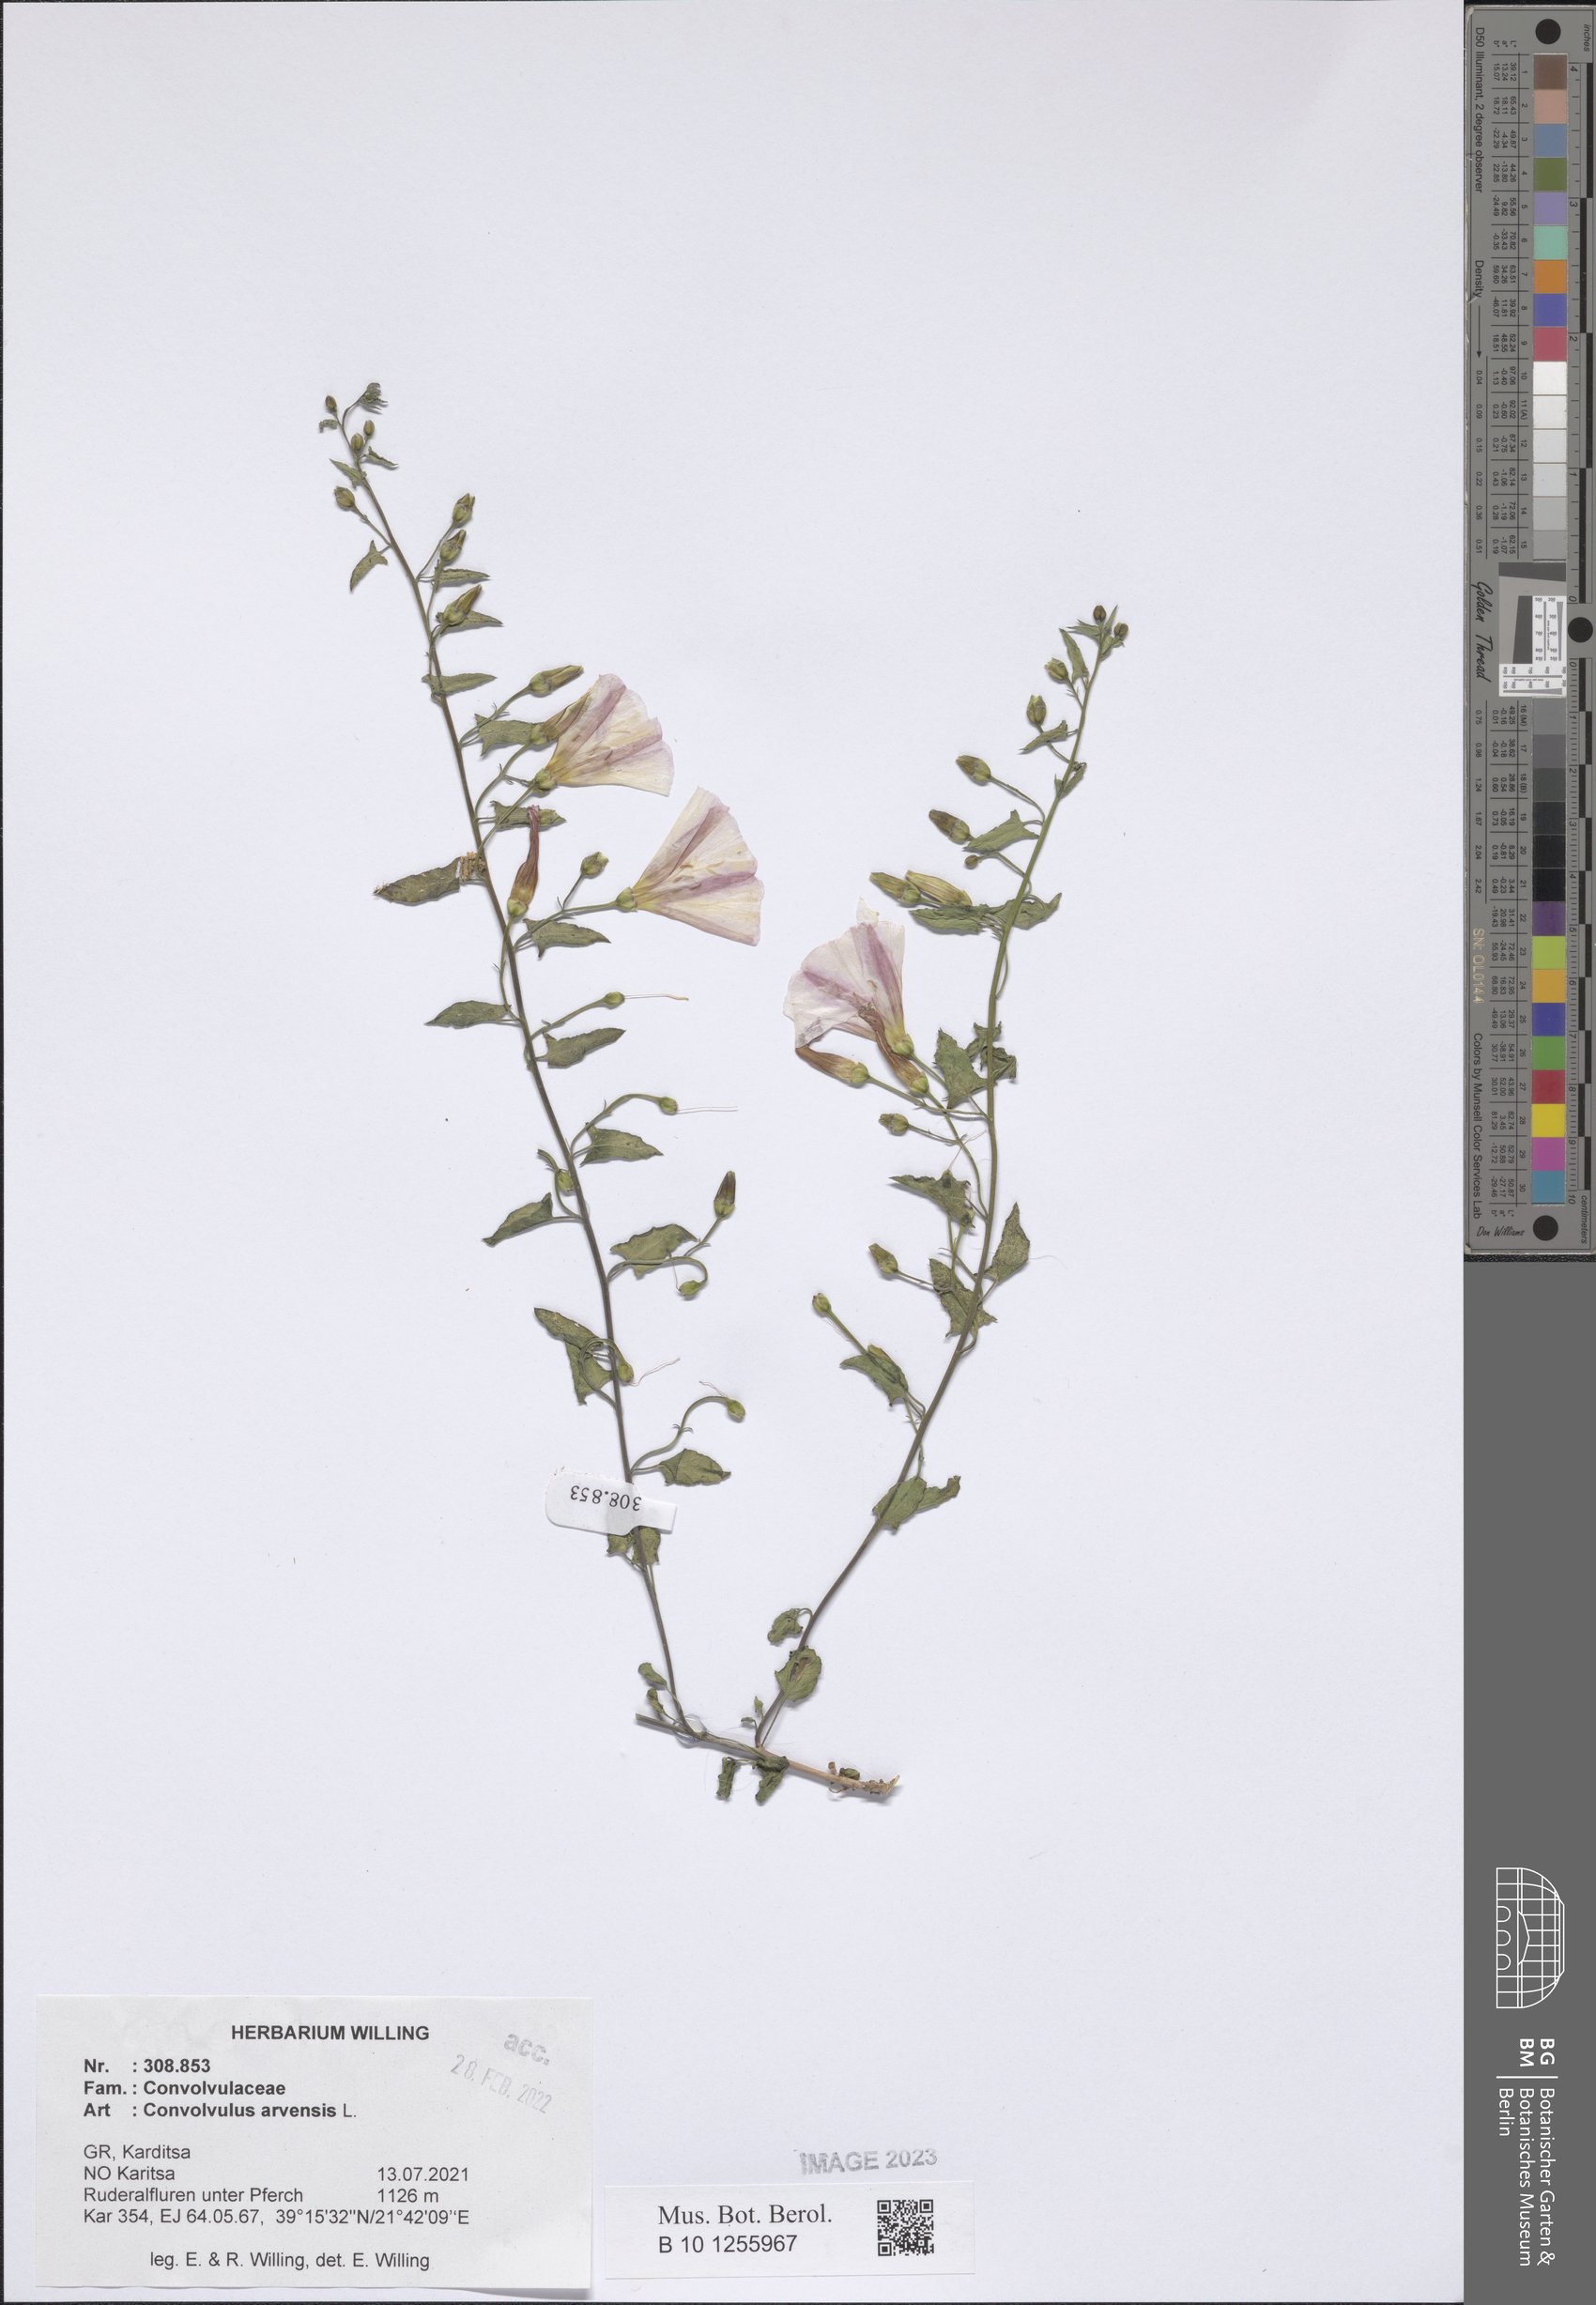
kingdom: Plantae
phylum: Tracheophyta
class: Magnoliopsida
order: Solanales
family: Convolvulaceae
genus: Convolvulus
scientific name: Convolvulus arvensis
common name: Field bindweed
